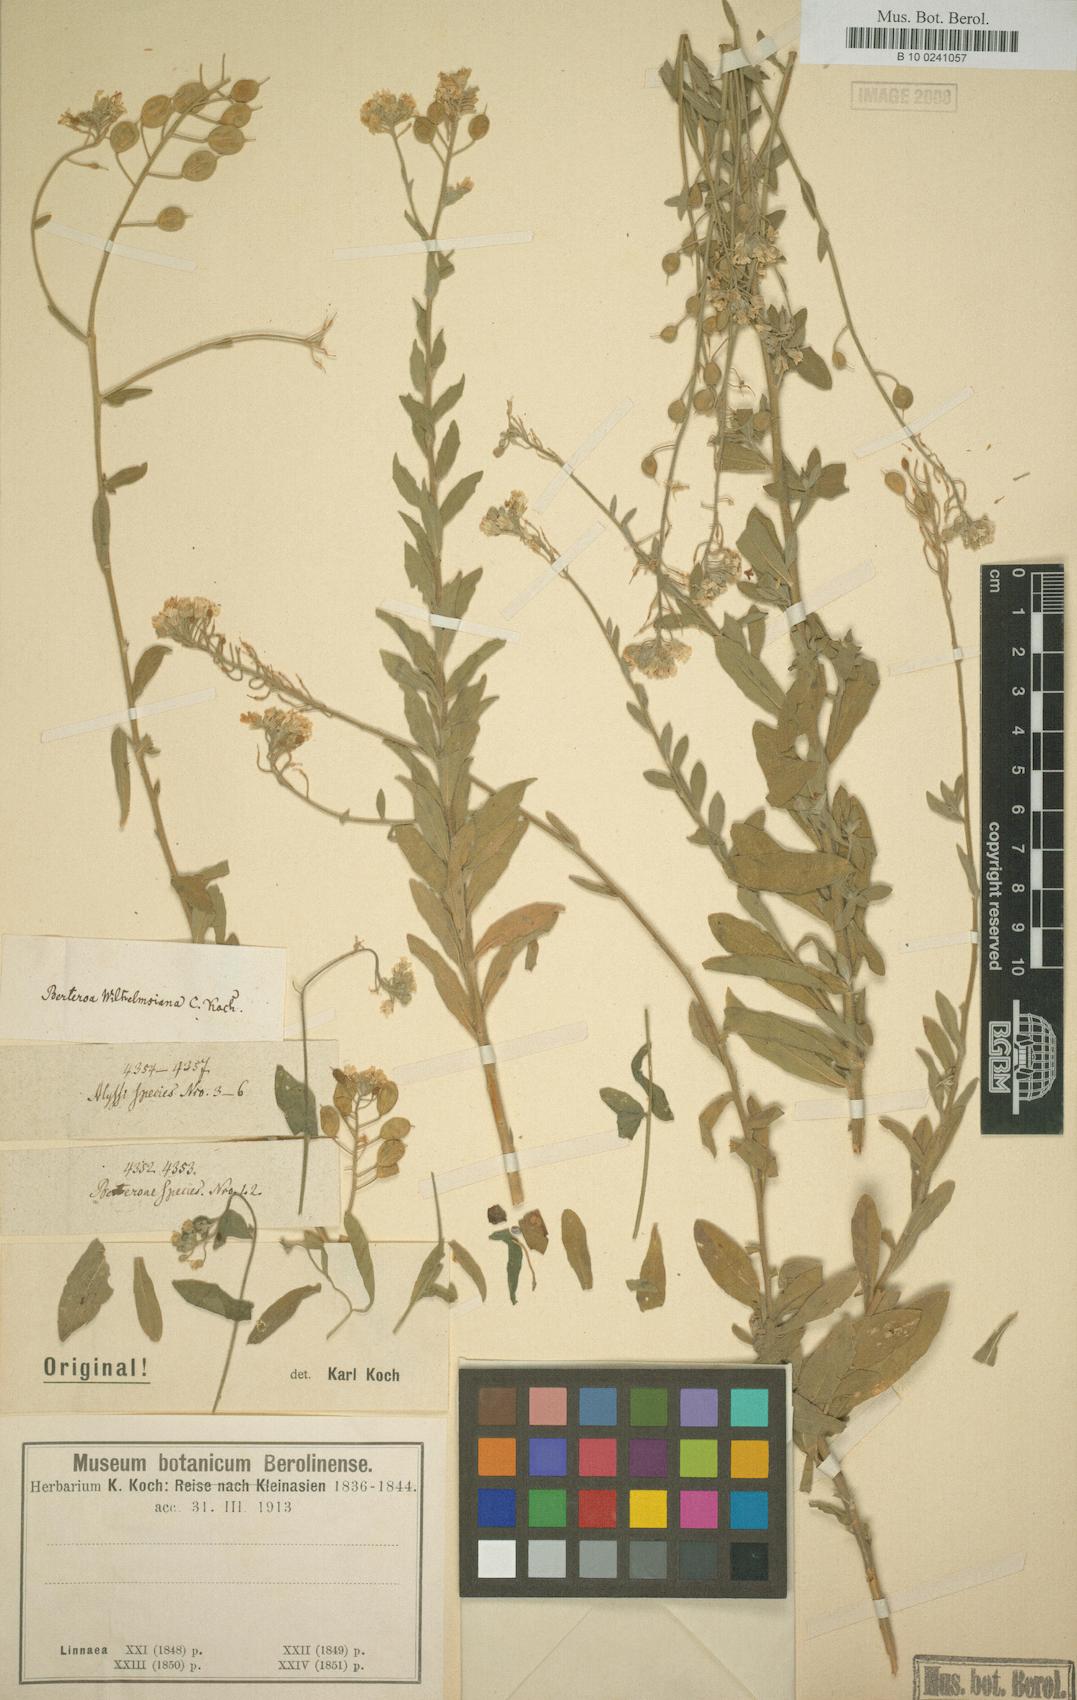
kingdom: Plantae
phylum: Tracheophyta
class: Magnoliopsida
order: Brassicales
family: Brassicaceae
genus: Berteroa
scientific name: Berteroa
